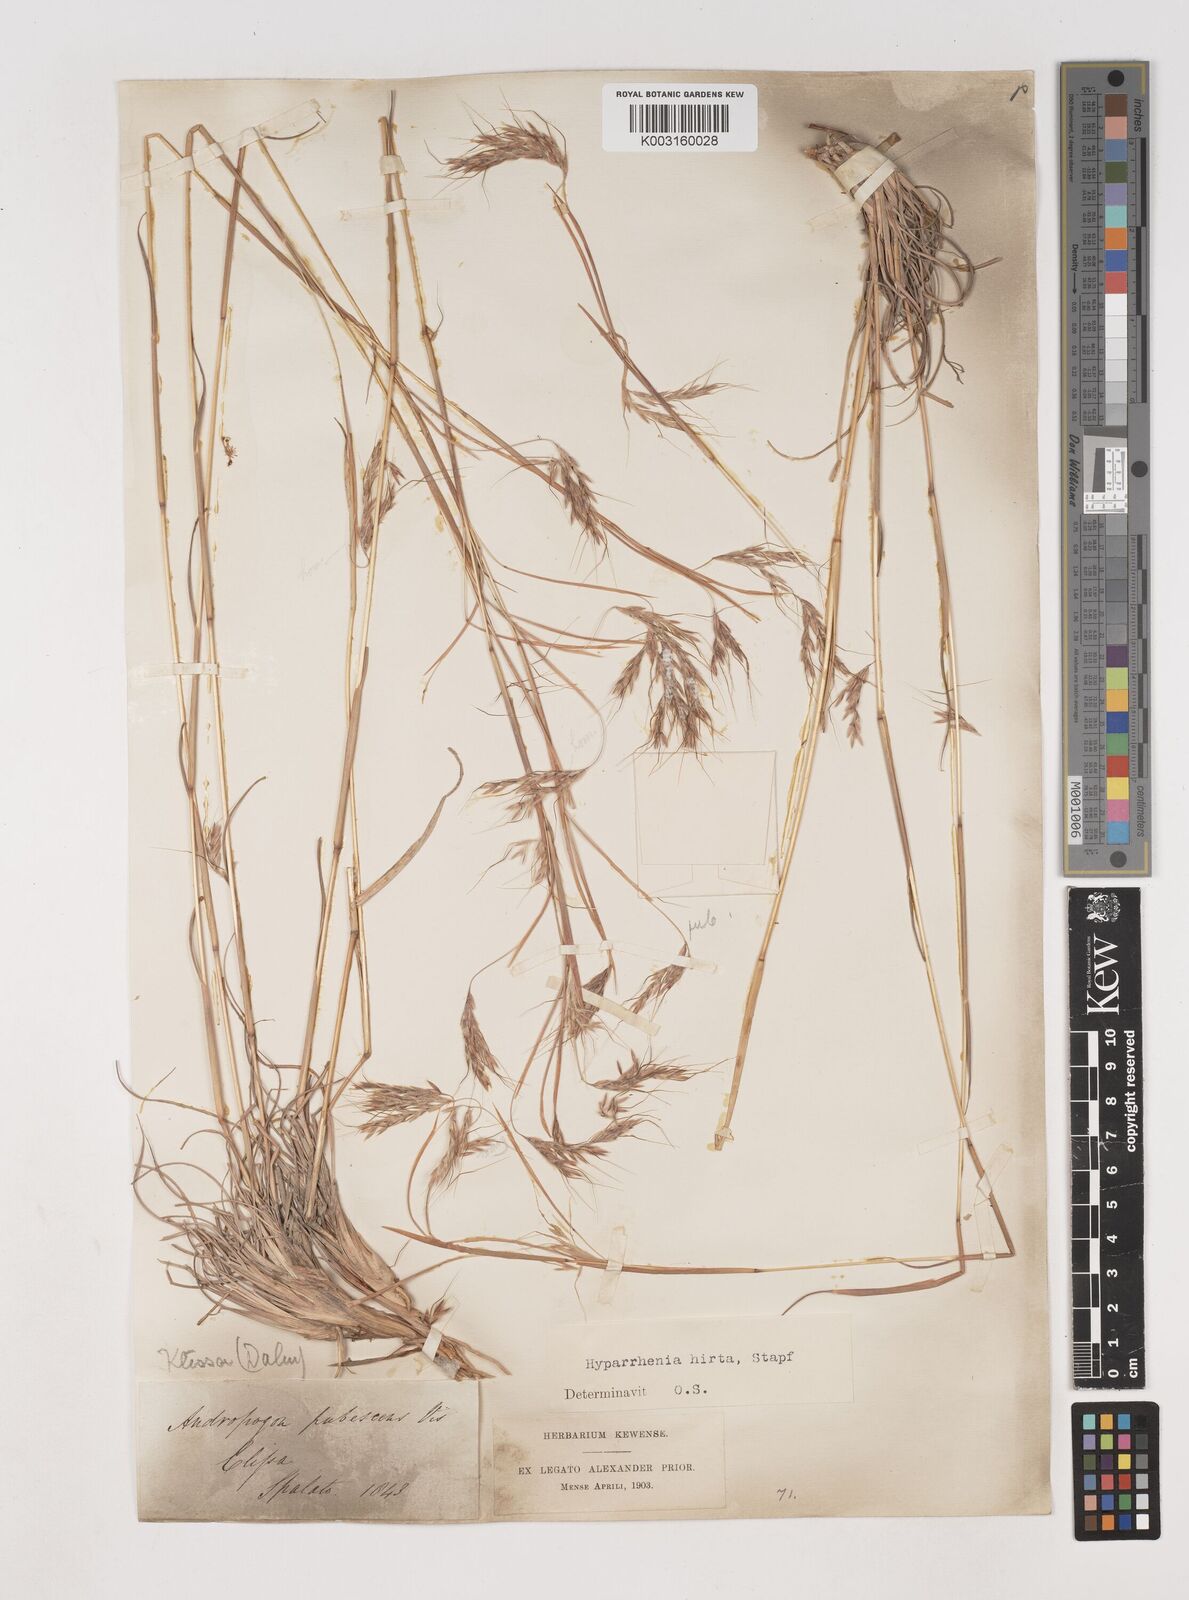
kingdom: Plantae
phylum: Tracheophyta
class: Liliopsida
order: Poales
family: Poaceae
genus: Hyparrhenia
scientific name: Hyparrhenia hirta
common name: Thatching grass
